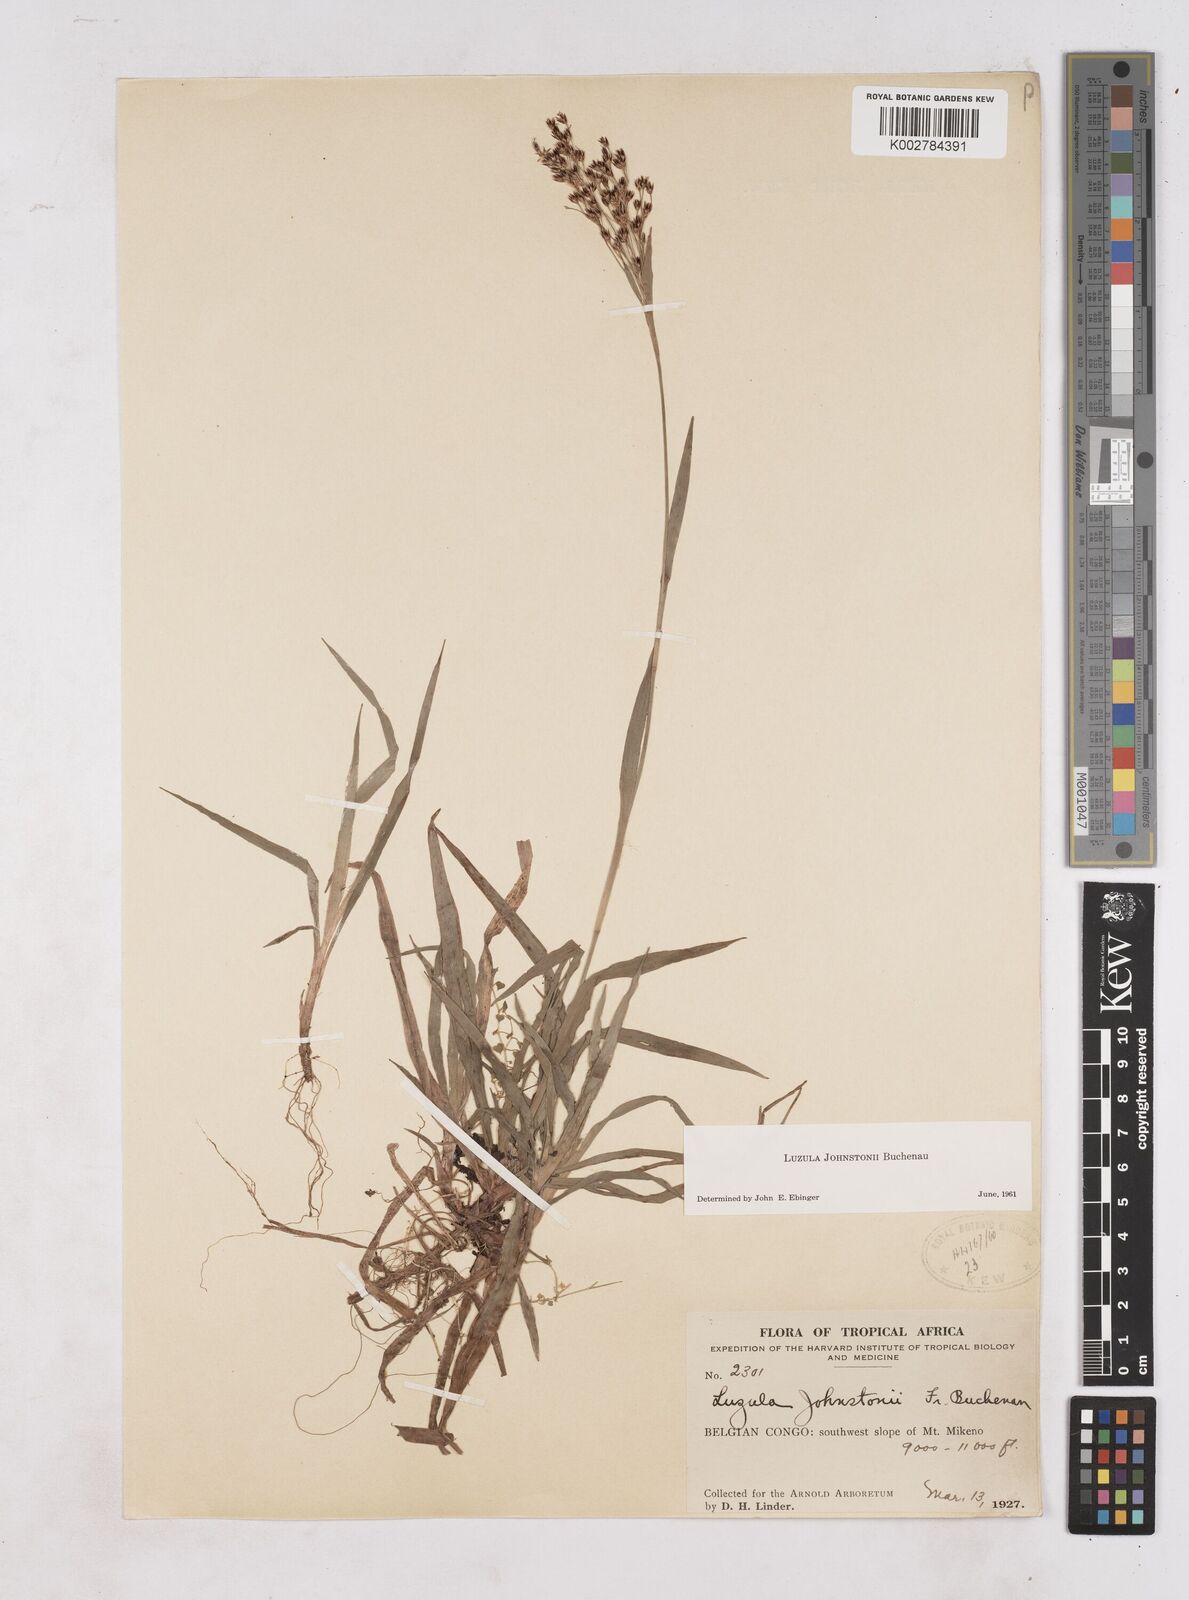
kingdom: Plantae
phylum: Tracheophyta
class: Liliopsida
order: Poales
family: Juncaceae
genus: Luzula
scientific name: Luzula johnstonii
